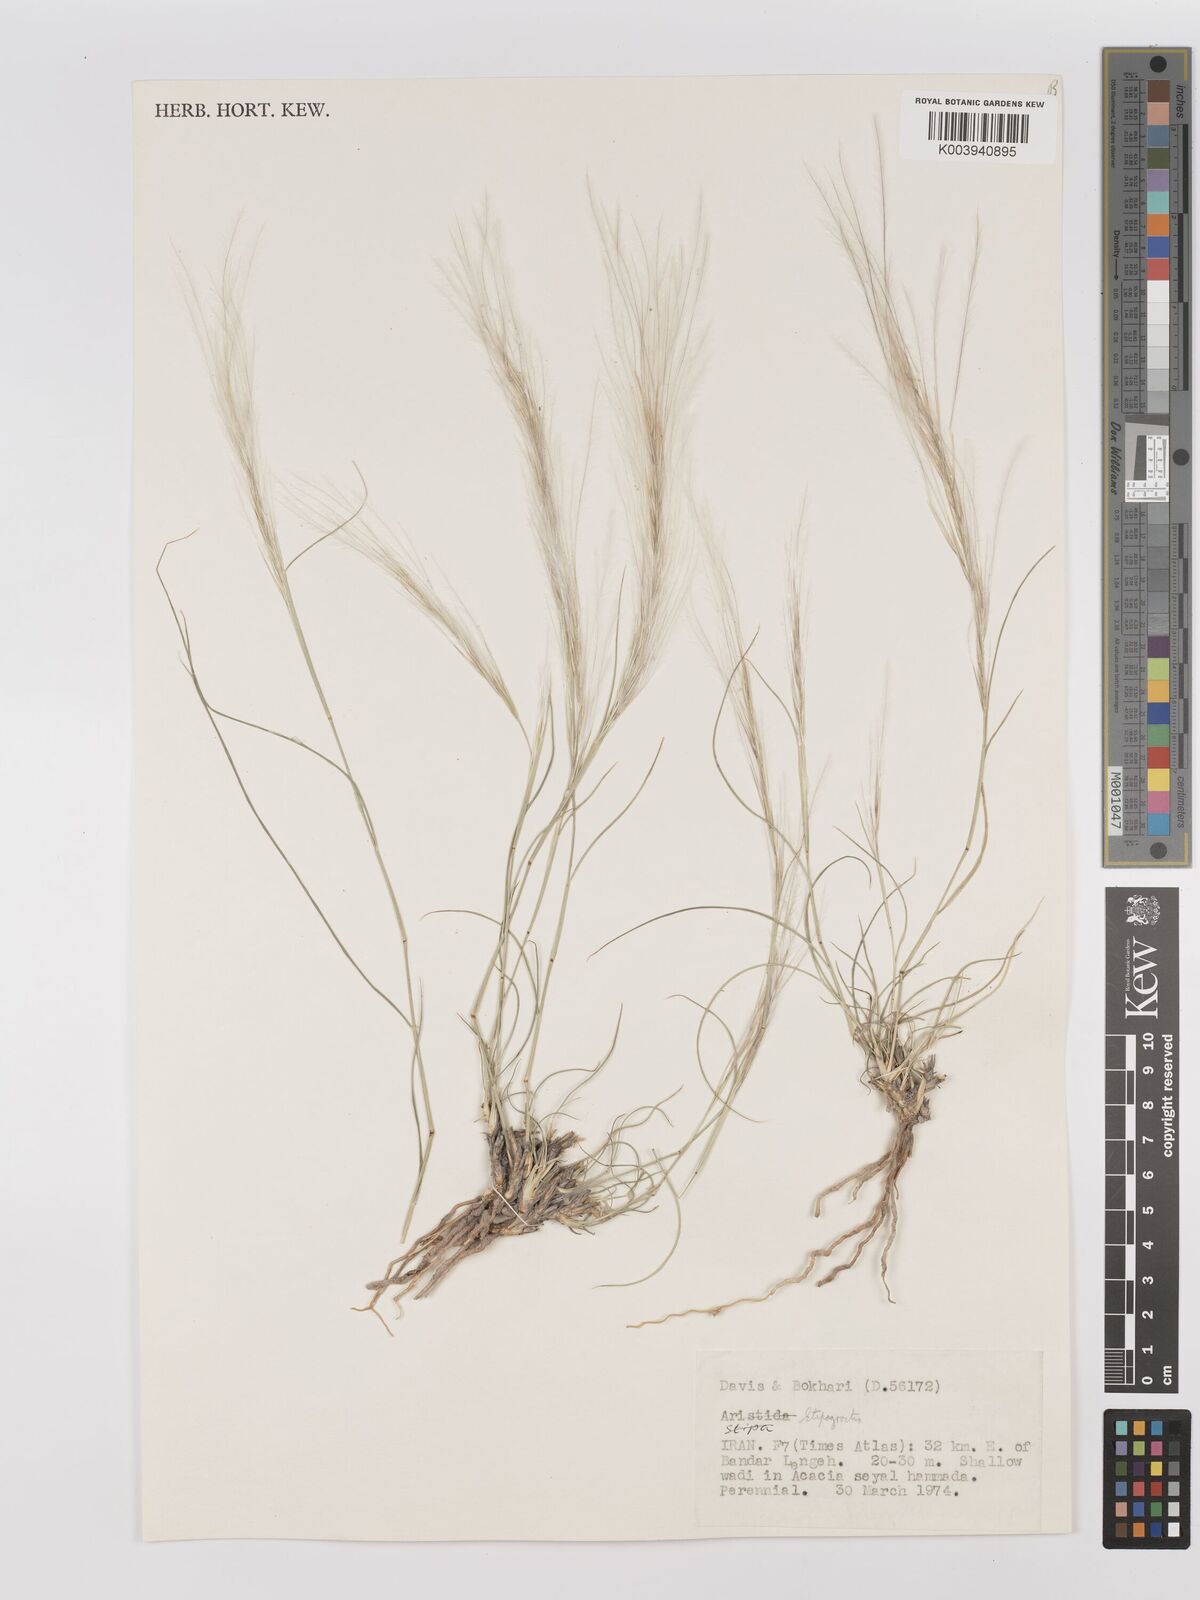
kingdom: Plantae
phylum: Tracheophyta
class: Liliopsida
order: Poales
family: Poaceae
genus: Stipagrostis
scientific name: Stipagrostis
